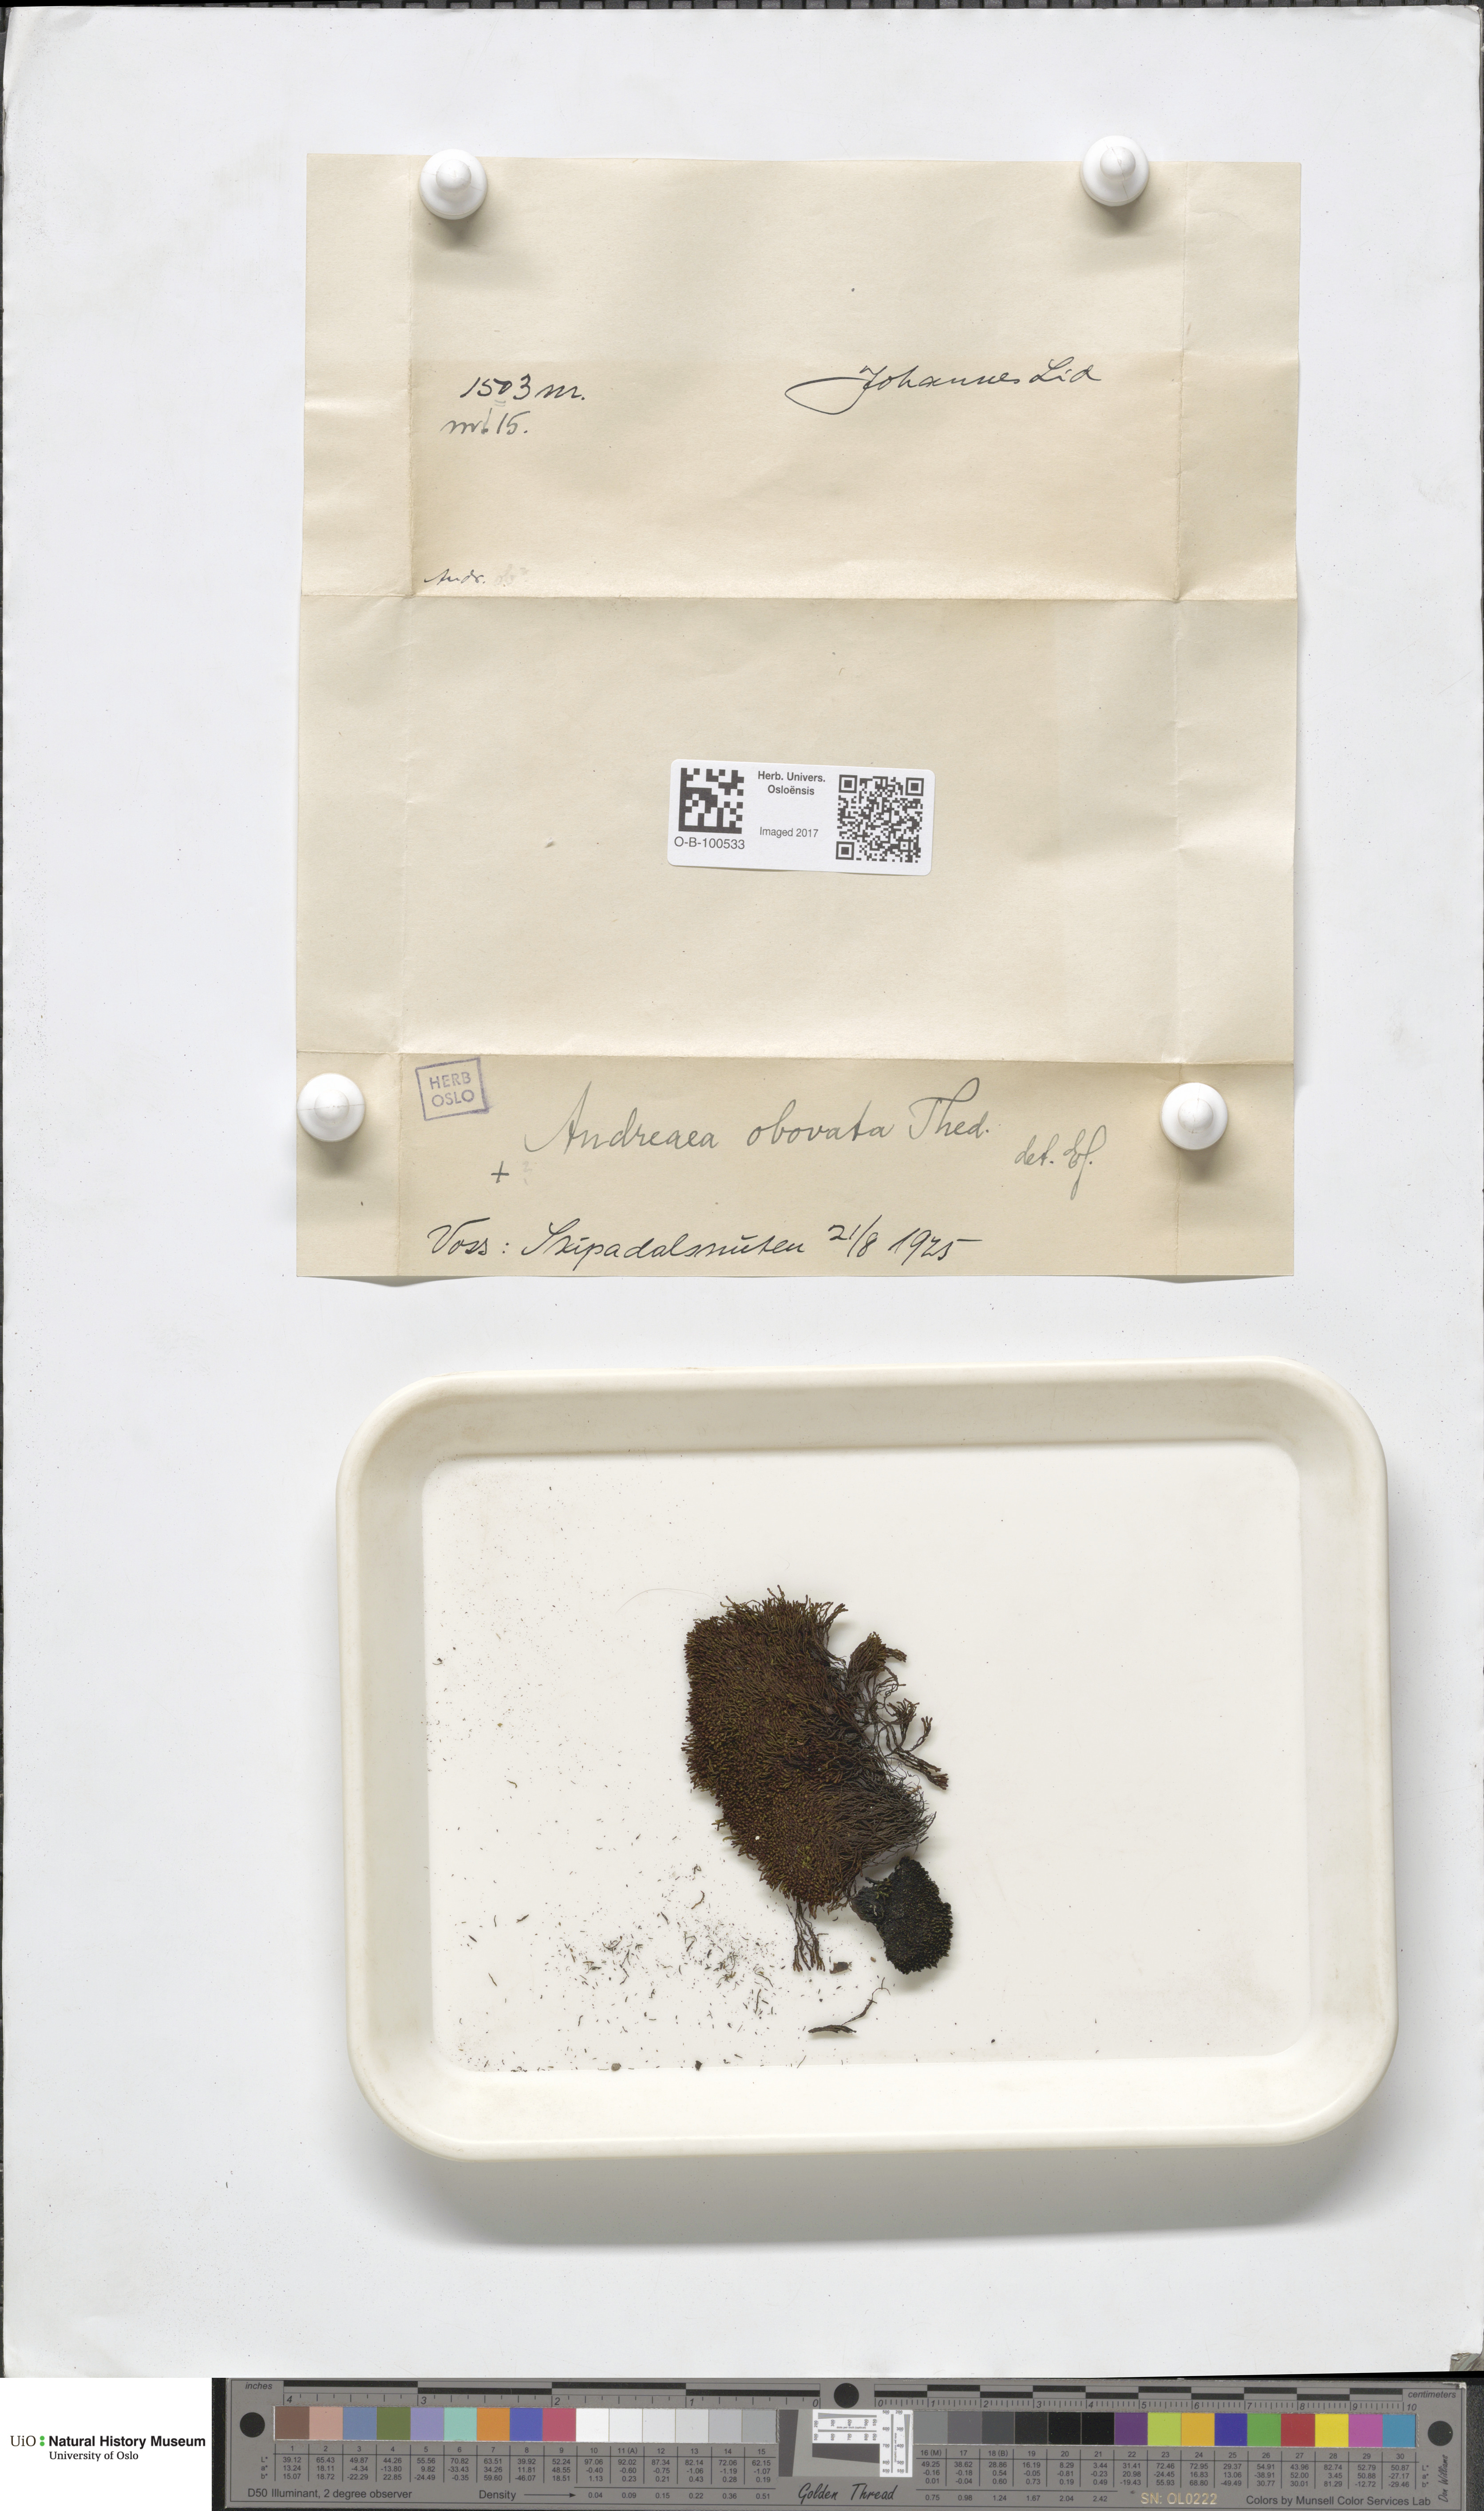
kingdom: Plantae
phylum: Bryophyta
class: Andreaeopsida
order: Andreaeales
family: Andreaeaceae
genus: Andreaea
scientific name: Andreaea alpina
